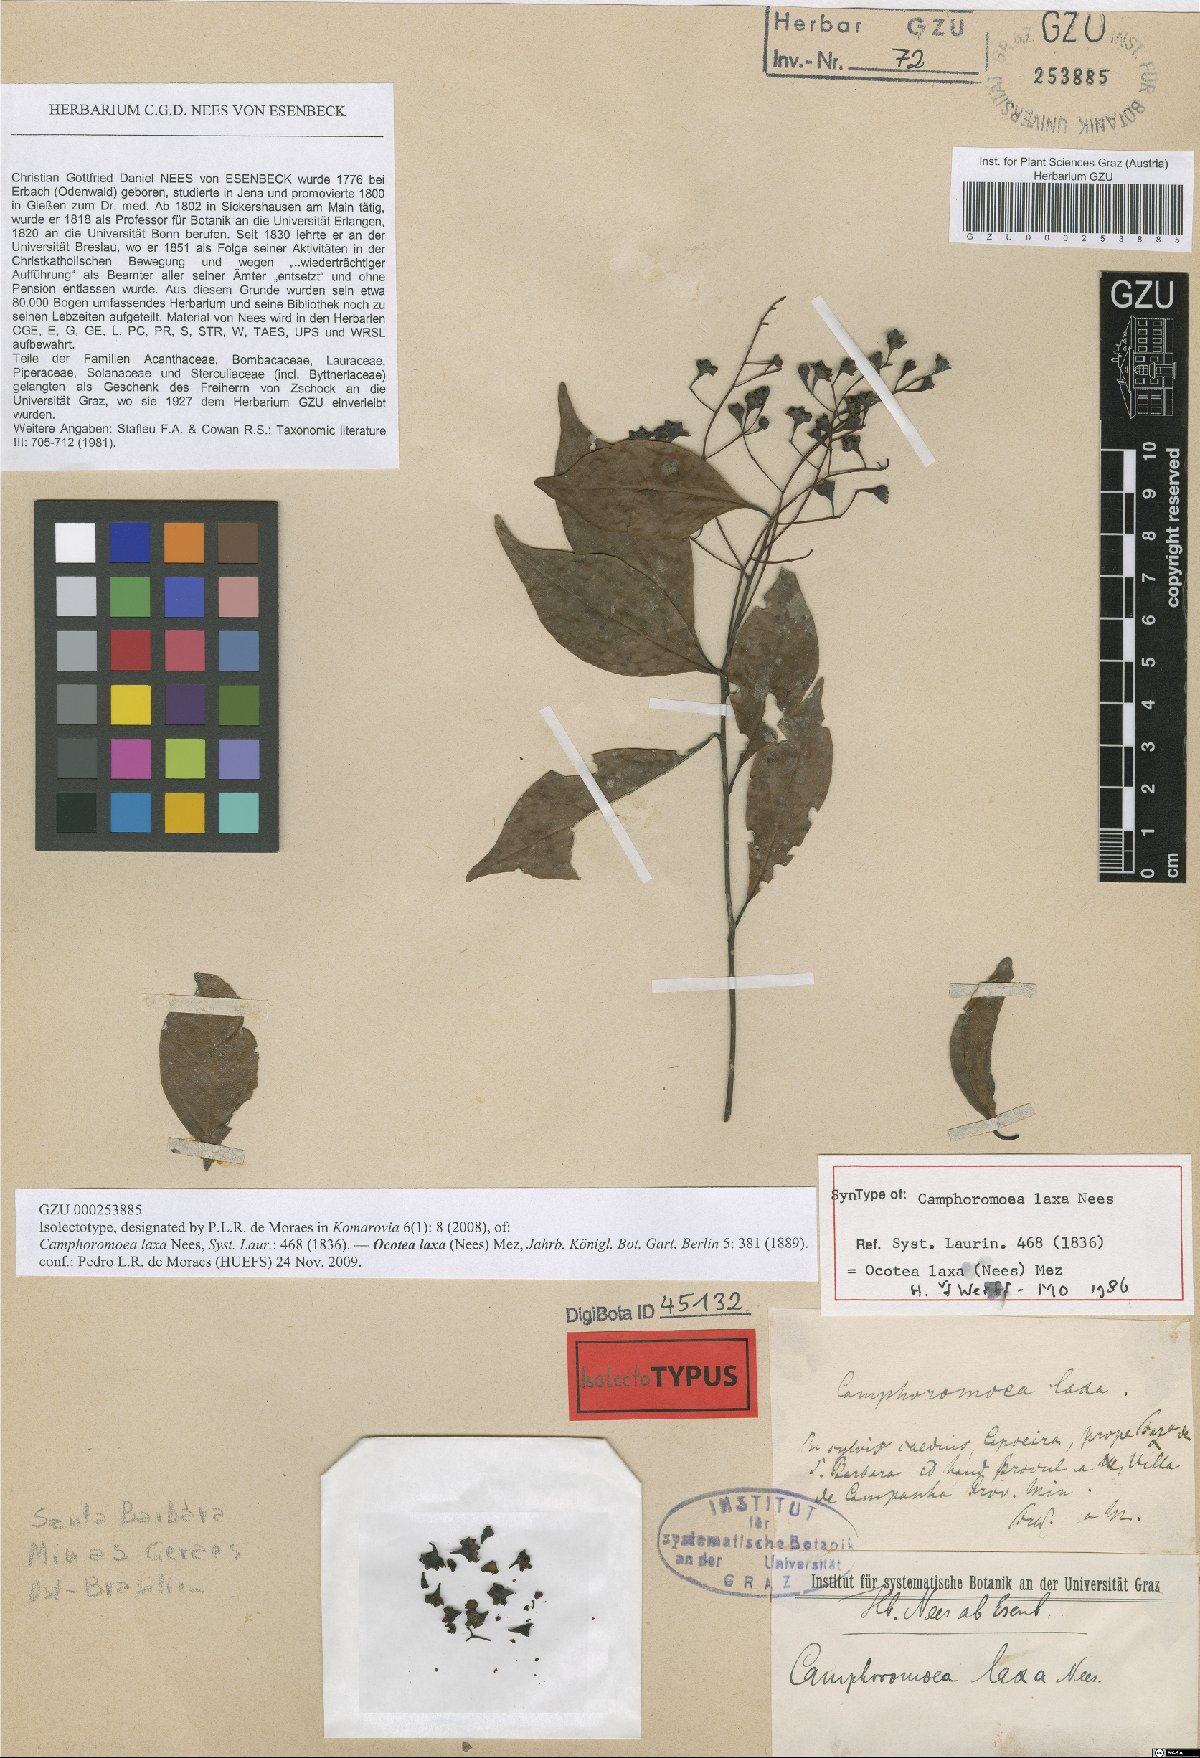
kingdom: Plantae
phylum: Tracheophyta
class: Magnoliopsida
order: Laurales
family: Lauraceae
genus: Ocotea
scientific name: Ocotea laxa
